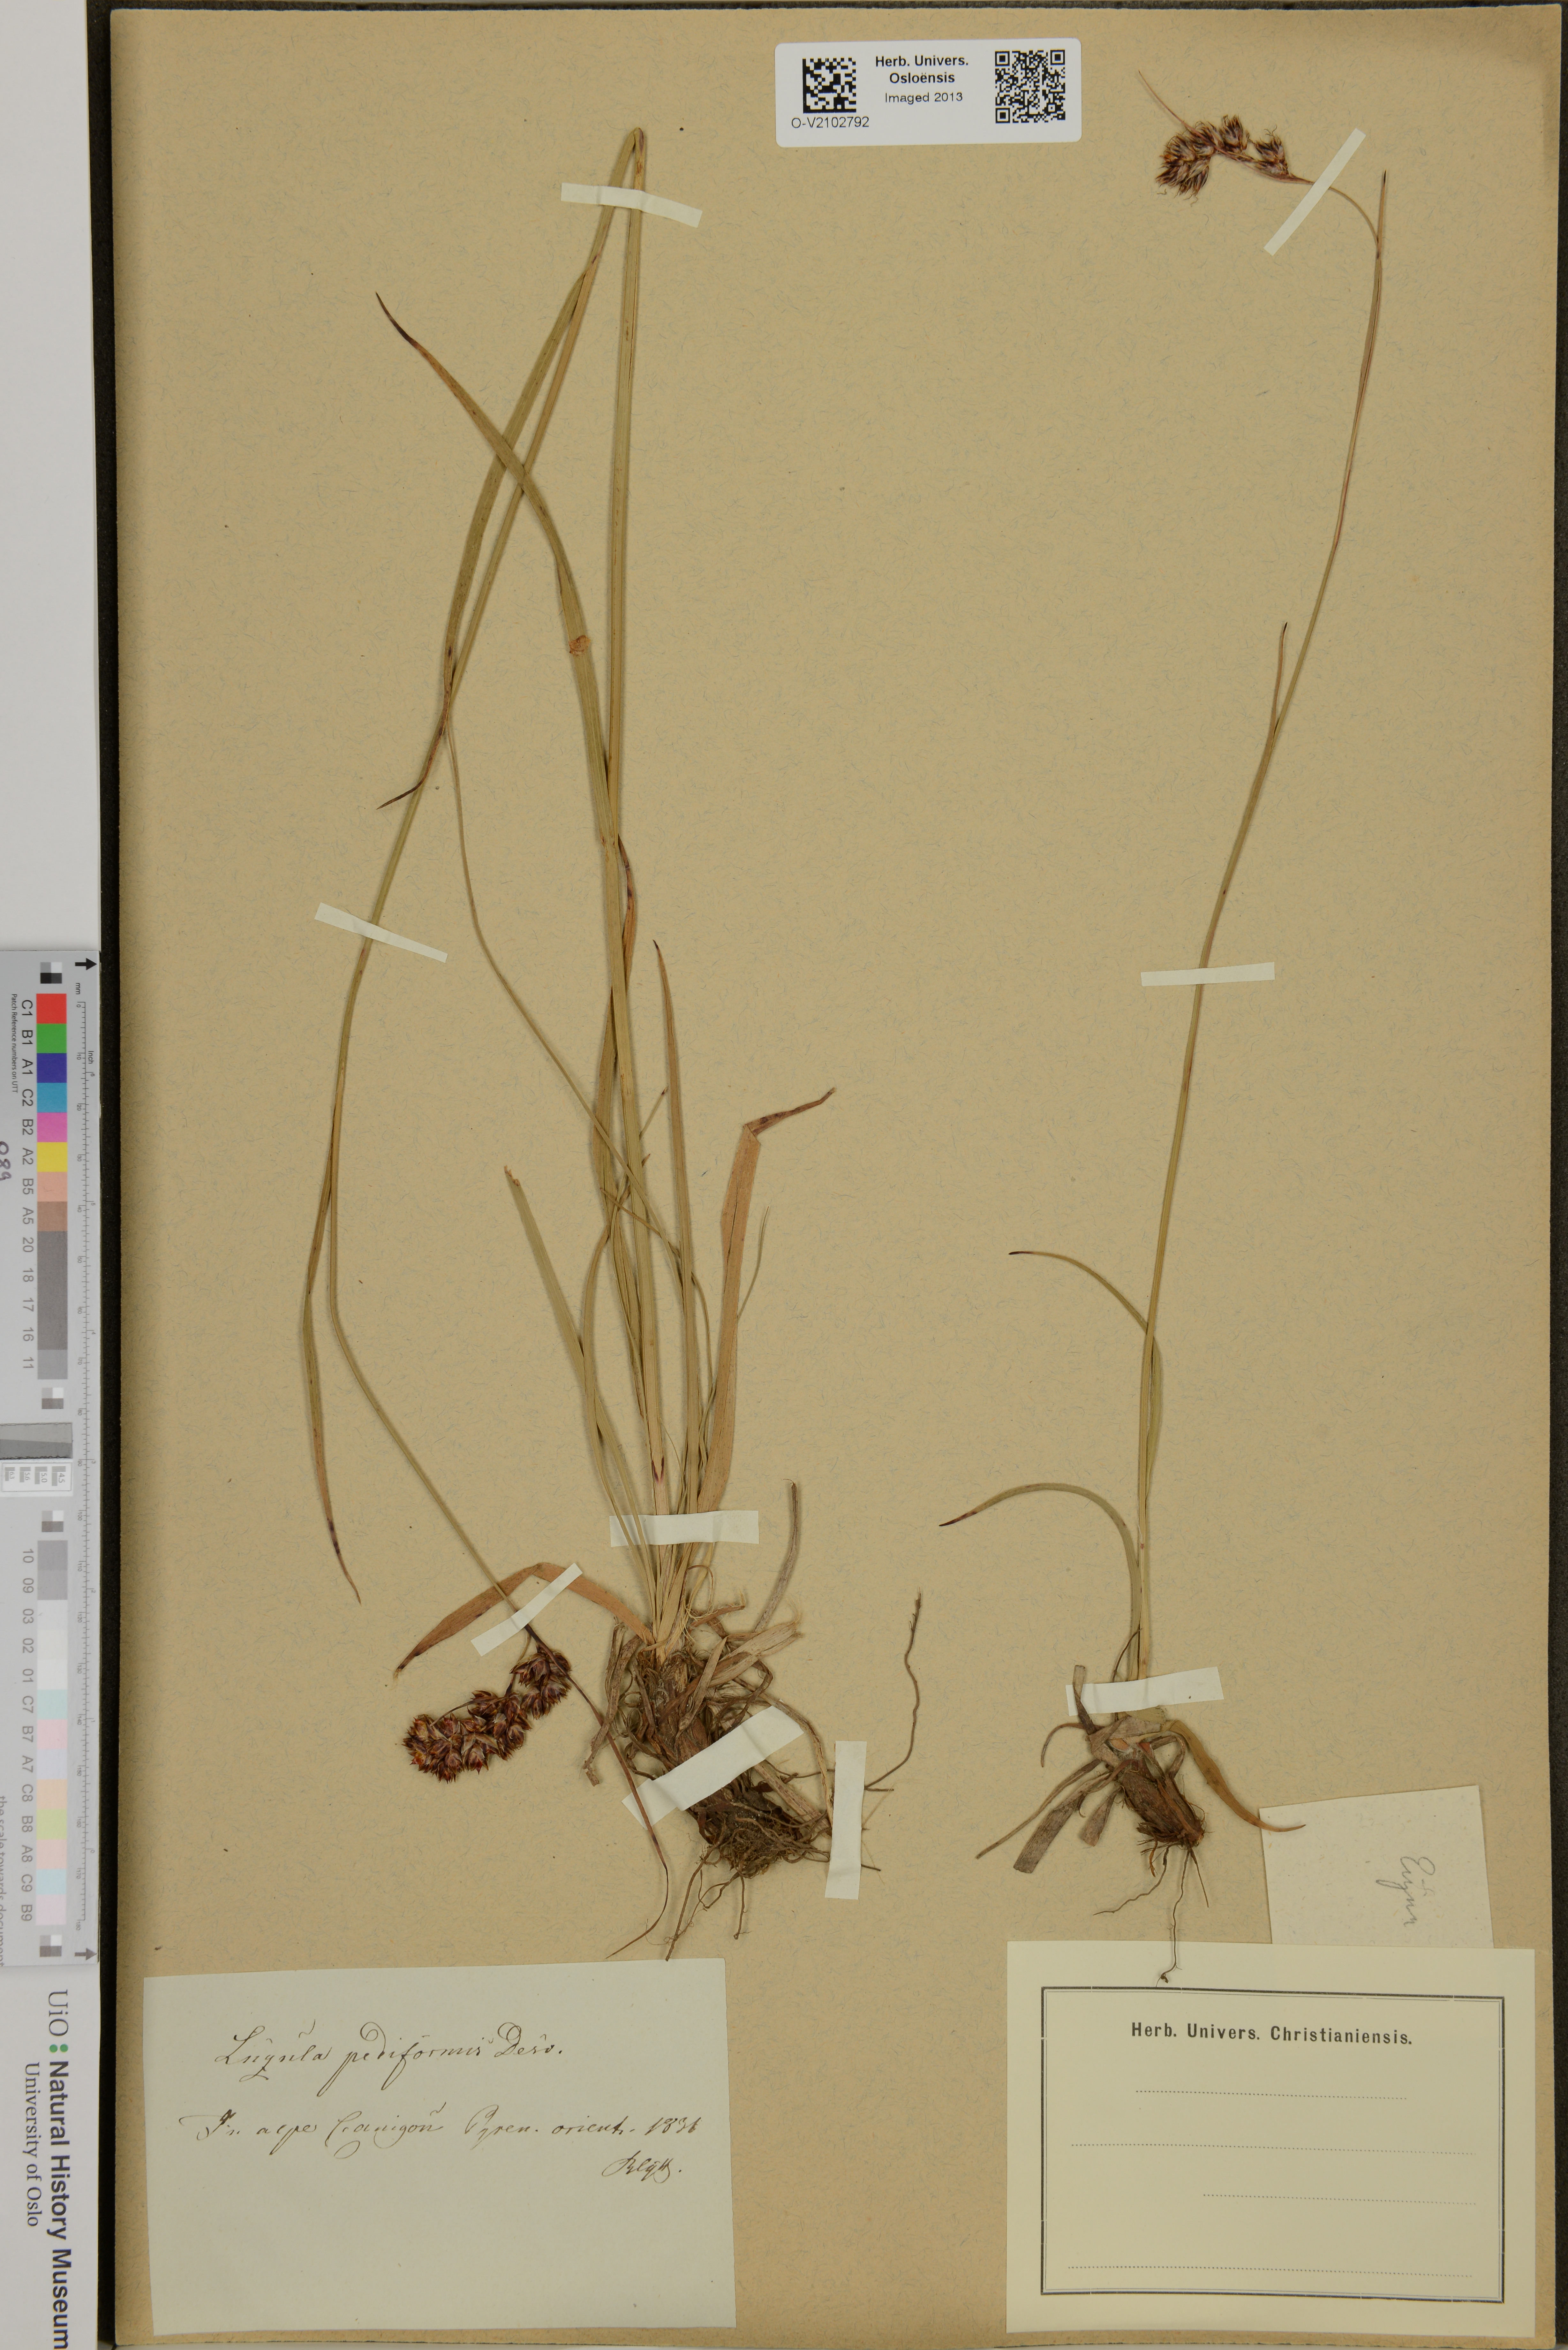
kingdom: Plantae
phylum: Tracheophyta
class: Liliopsida
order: Poales
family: Juncaceae
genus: Luzula
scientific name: Luzula pediformis
